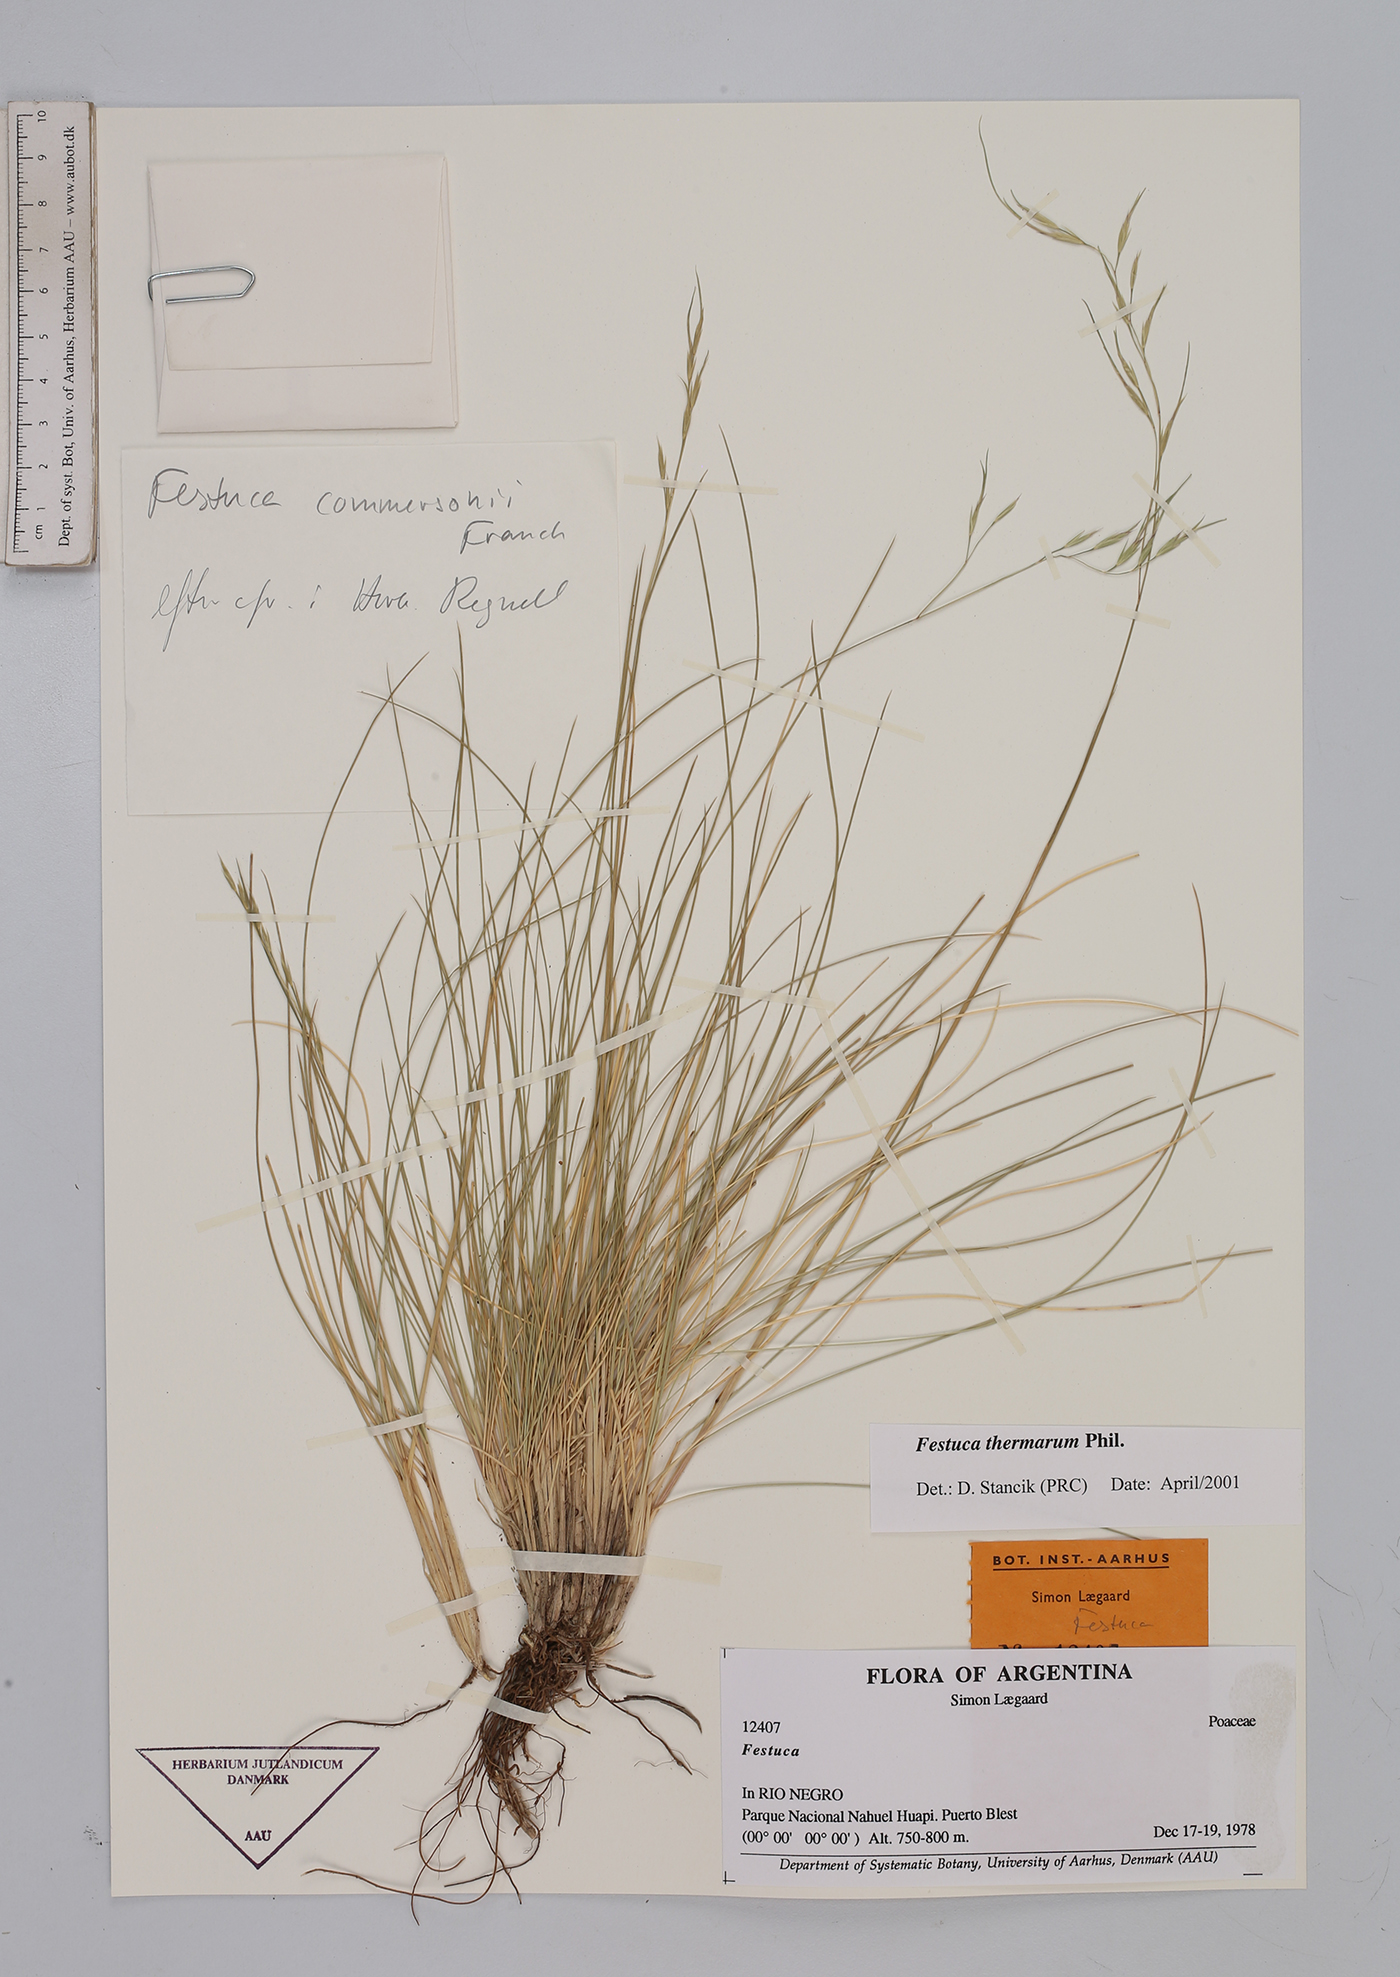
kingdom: Plantae
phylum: Tracheophyta
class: Liliopsida
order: Poales
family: Poaceae
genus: Festuca
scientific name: Festuca
